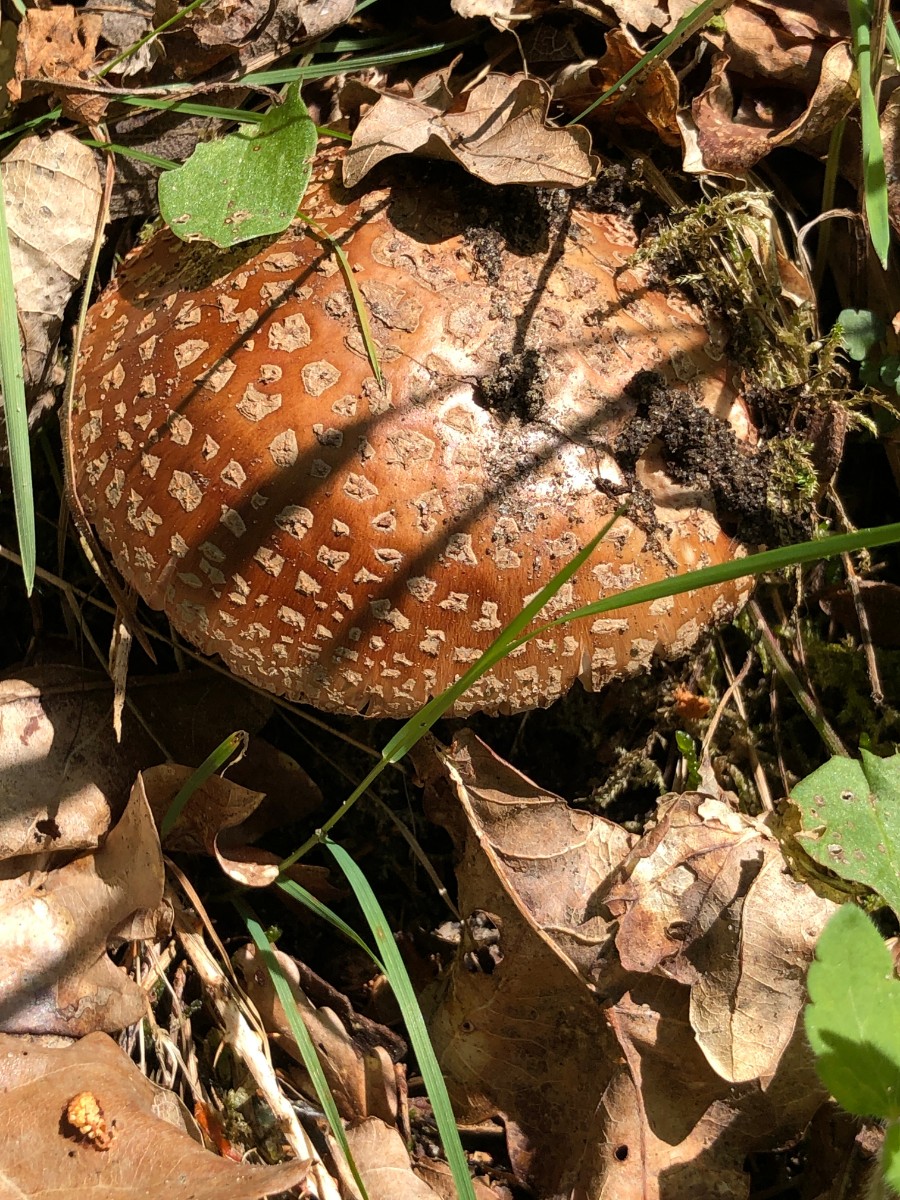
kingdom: Fungi
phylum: Basidiomycota
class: Agaricomycetes
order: Agaricales
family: Amanitaceae
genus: Amanita
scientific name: Amanita rubescens
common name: rødmende fluesvamp
